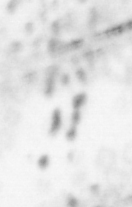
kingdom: Animalia
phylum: Chordata
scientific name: Chordata
